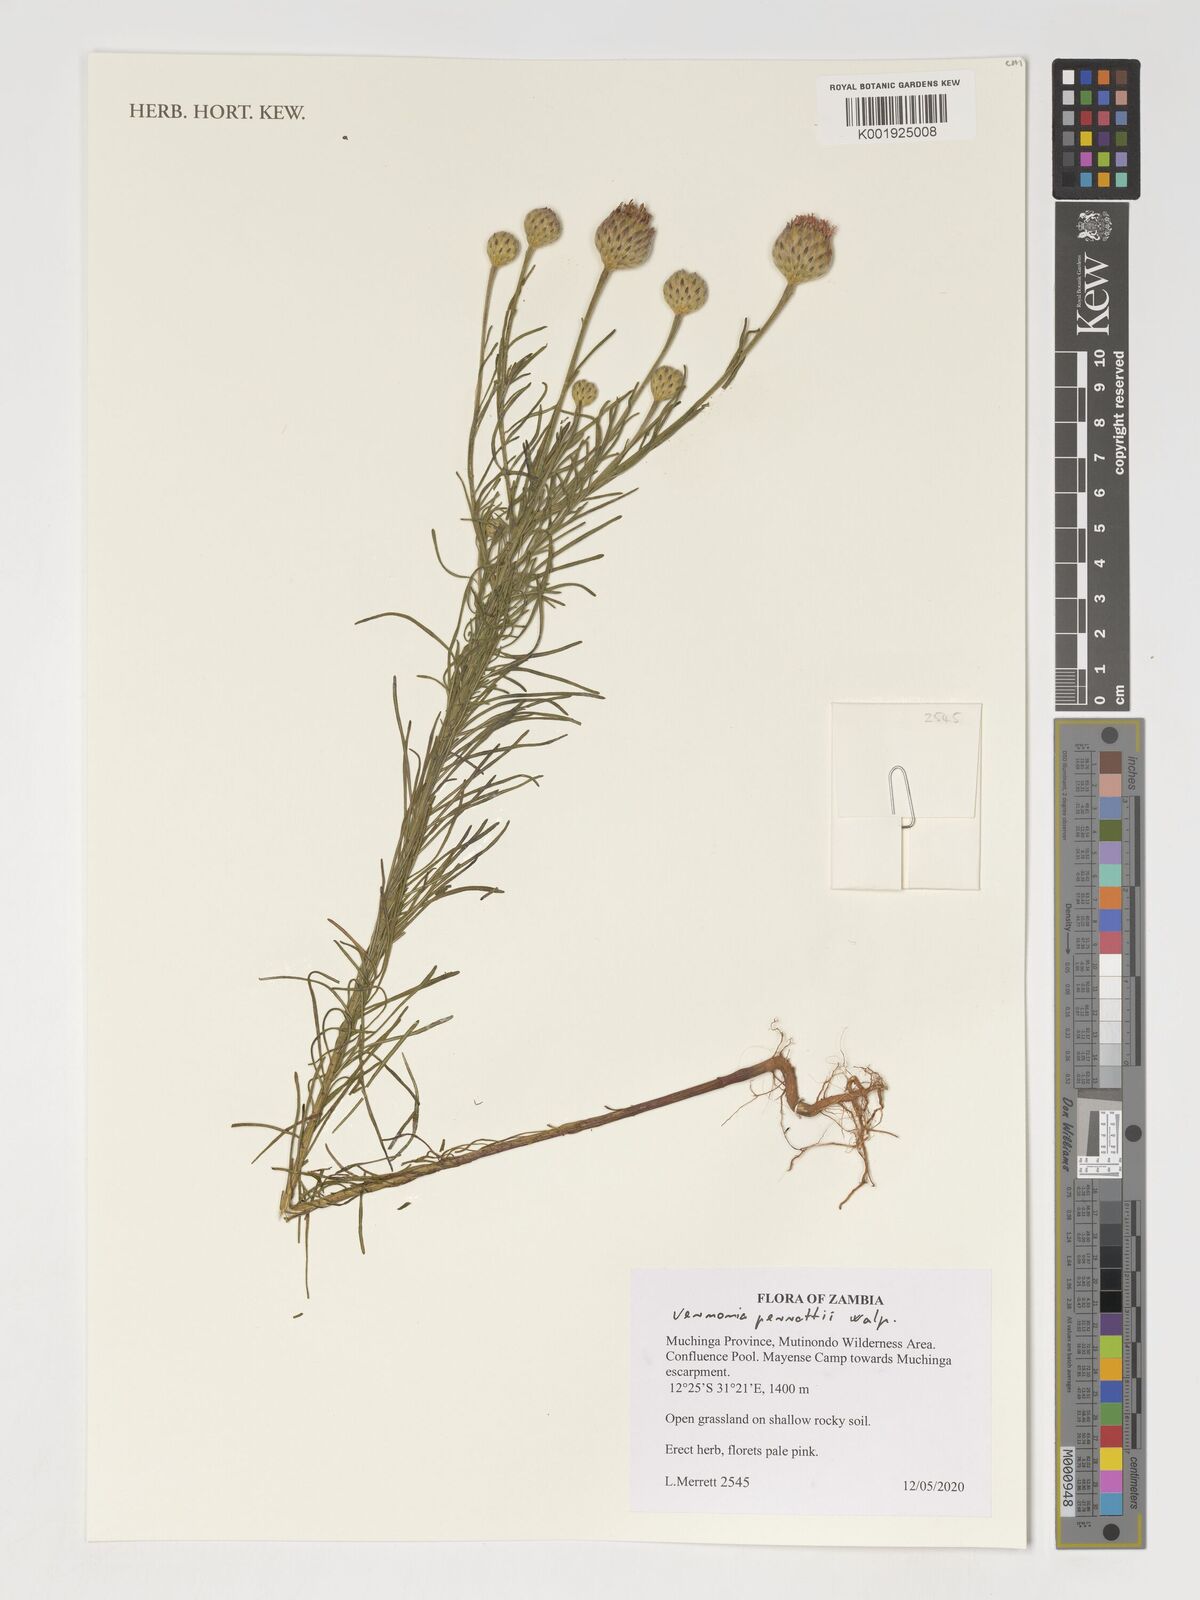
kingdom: Plantae
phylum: Tracheophyta
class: Magnoliopsida
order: Asterales
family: Asteraceae
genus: Crystallopollen
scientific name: Crystallopollen serratuloides
